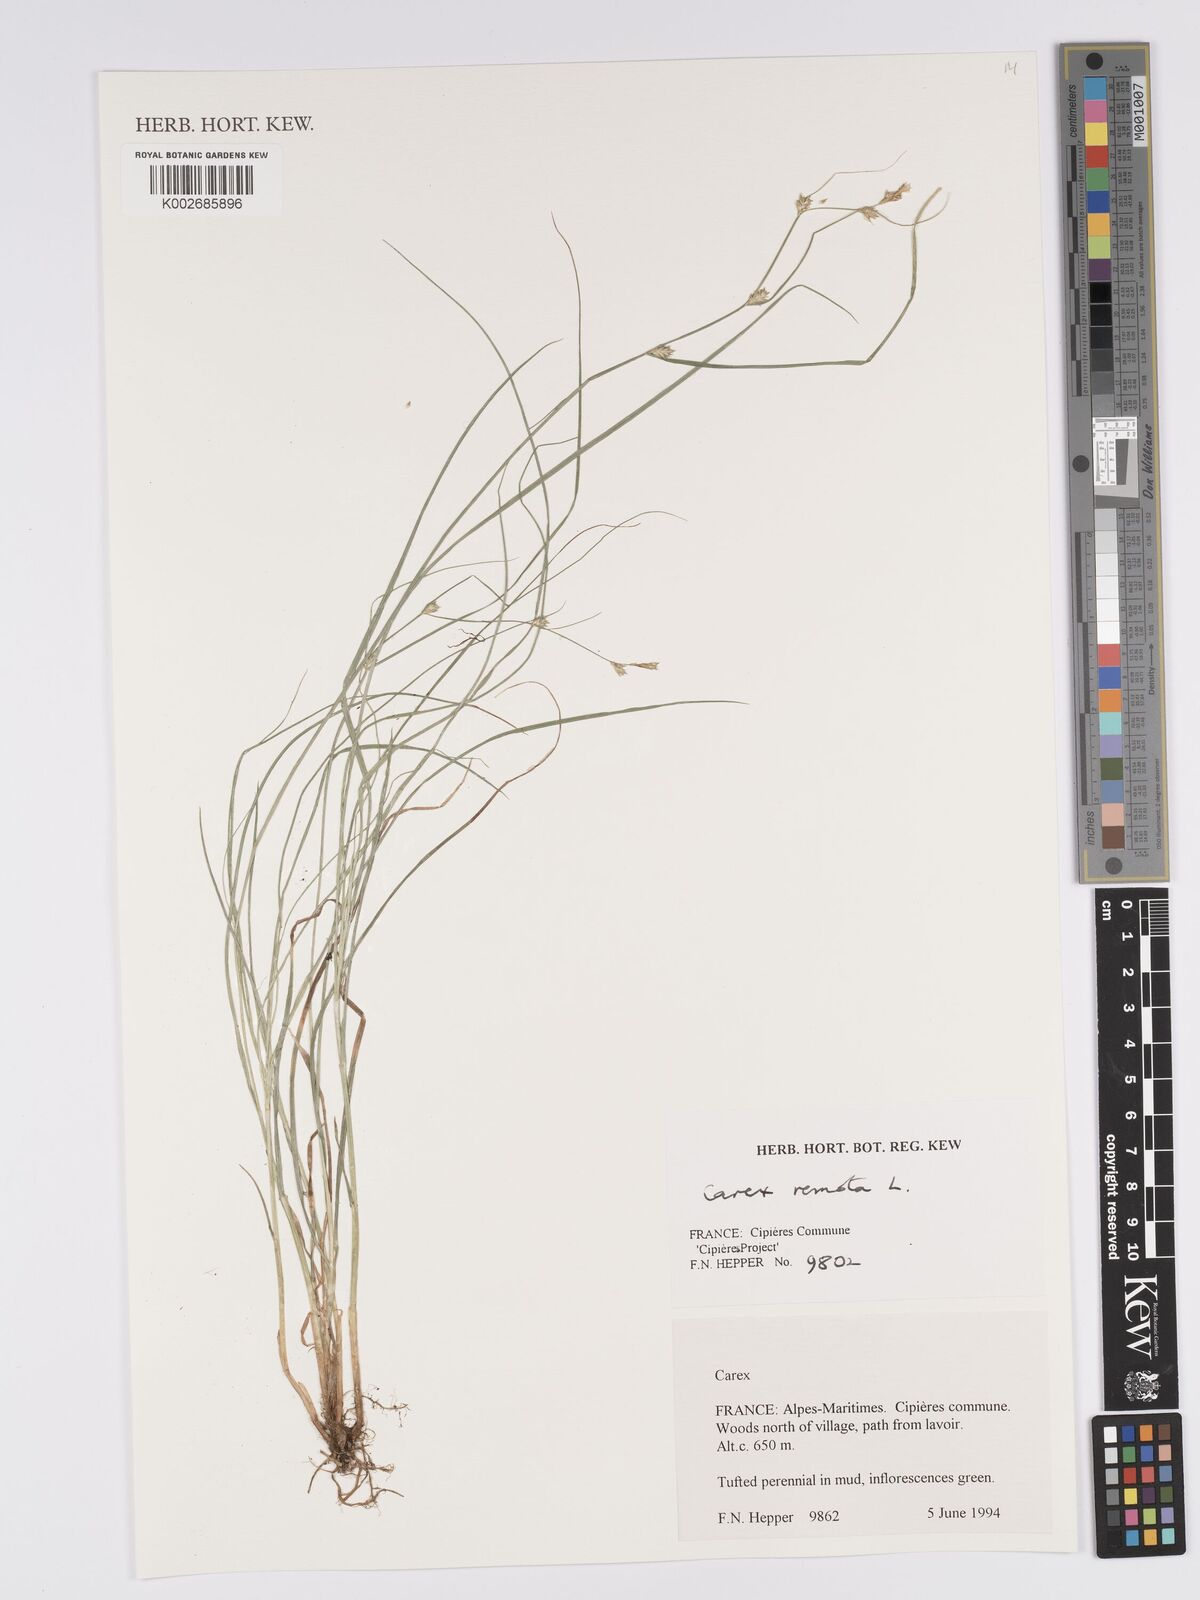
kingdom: Plantae
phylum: Tracheophyta
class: Liliopsida
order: Poales
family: Cyperaceae
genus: Carex
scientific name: Carex remota
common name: Remote sedge
